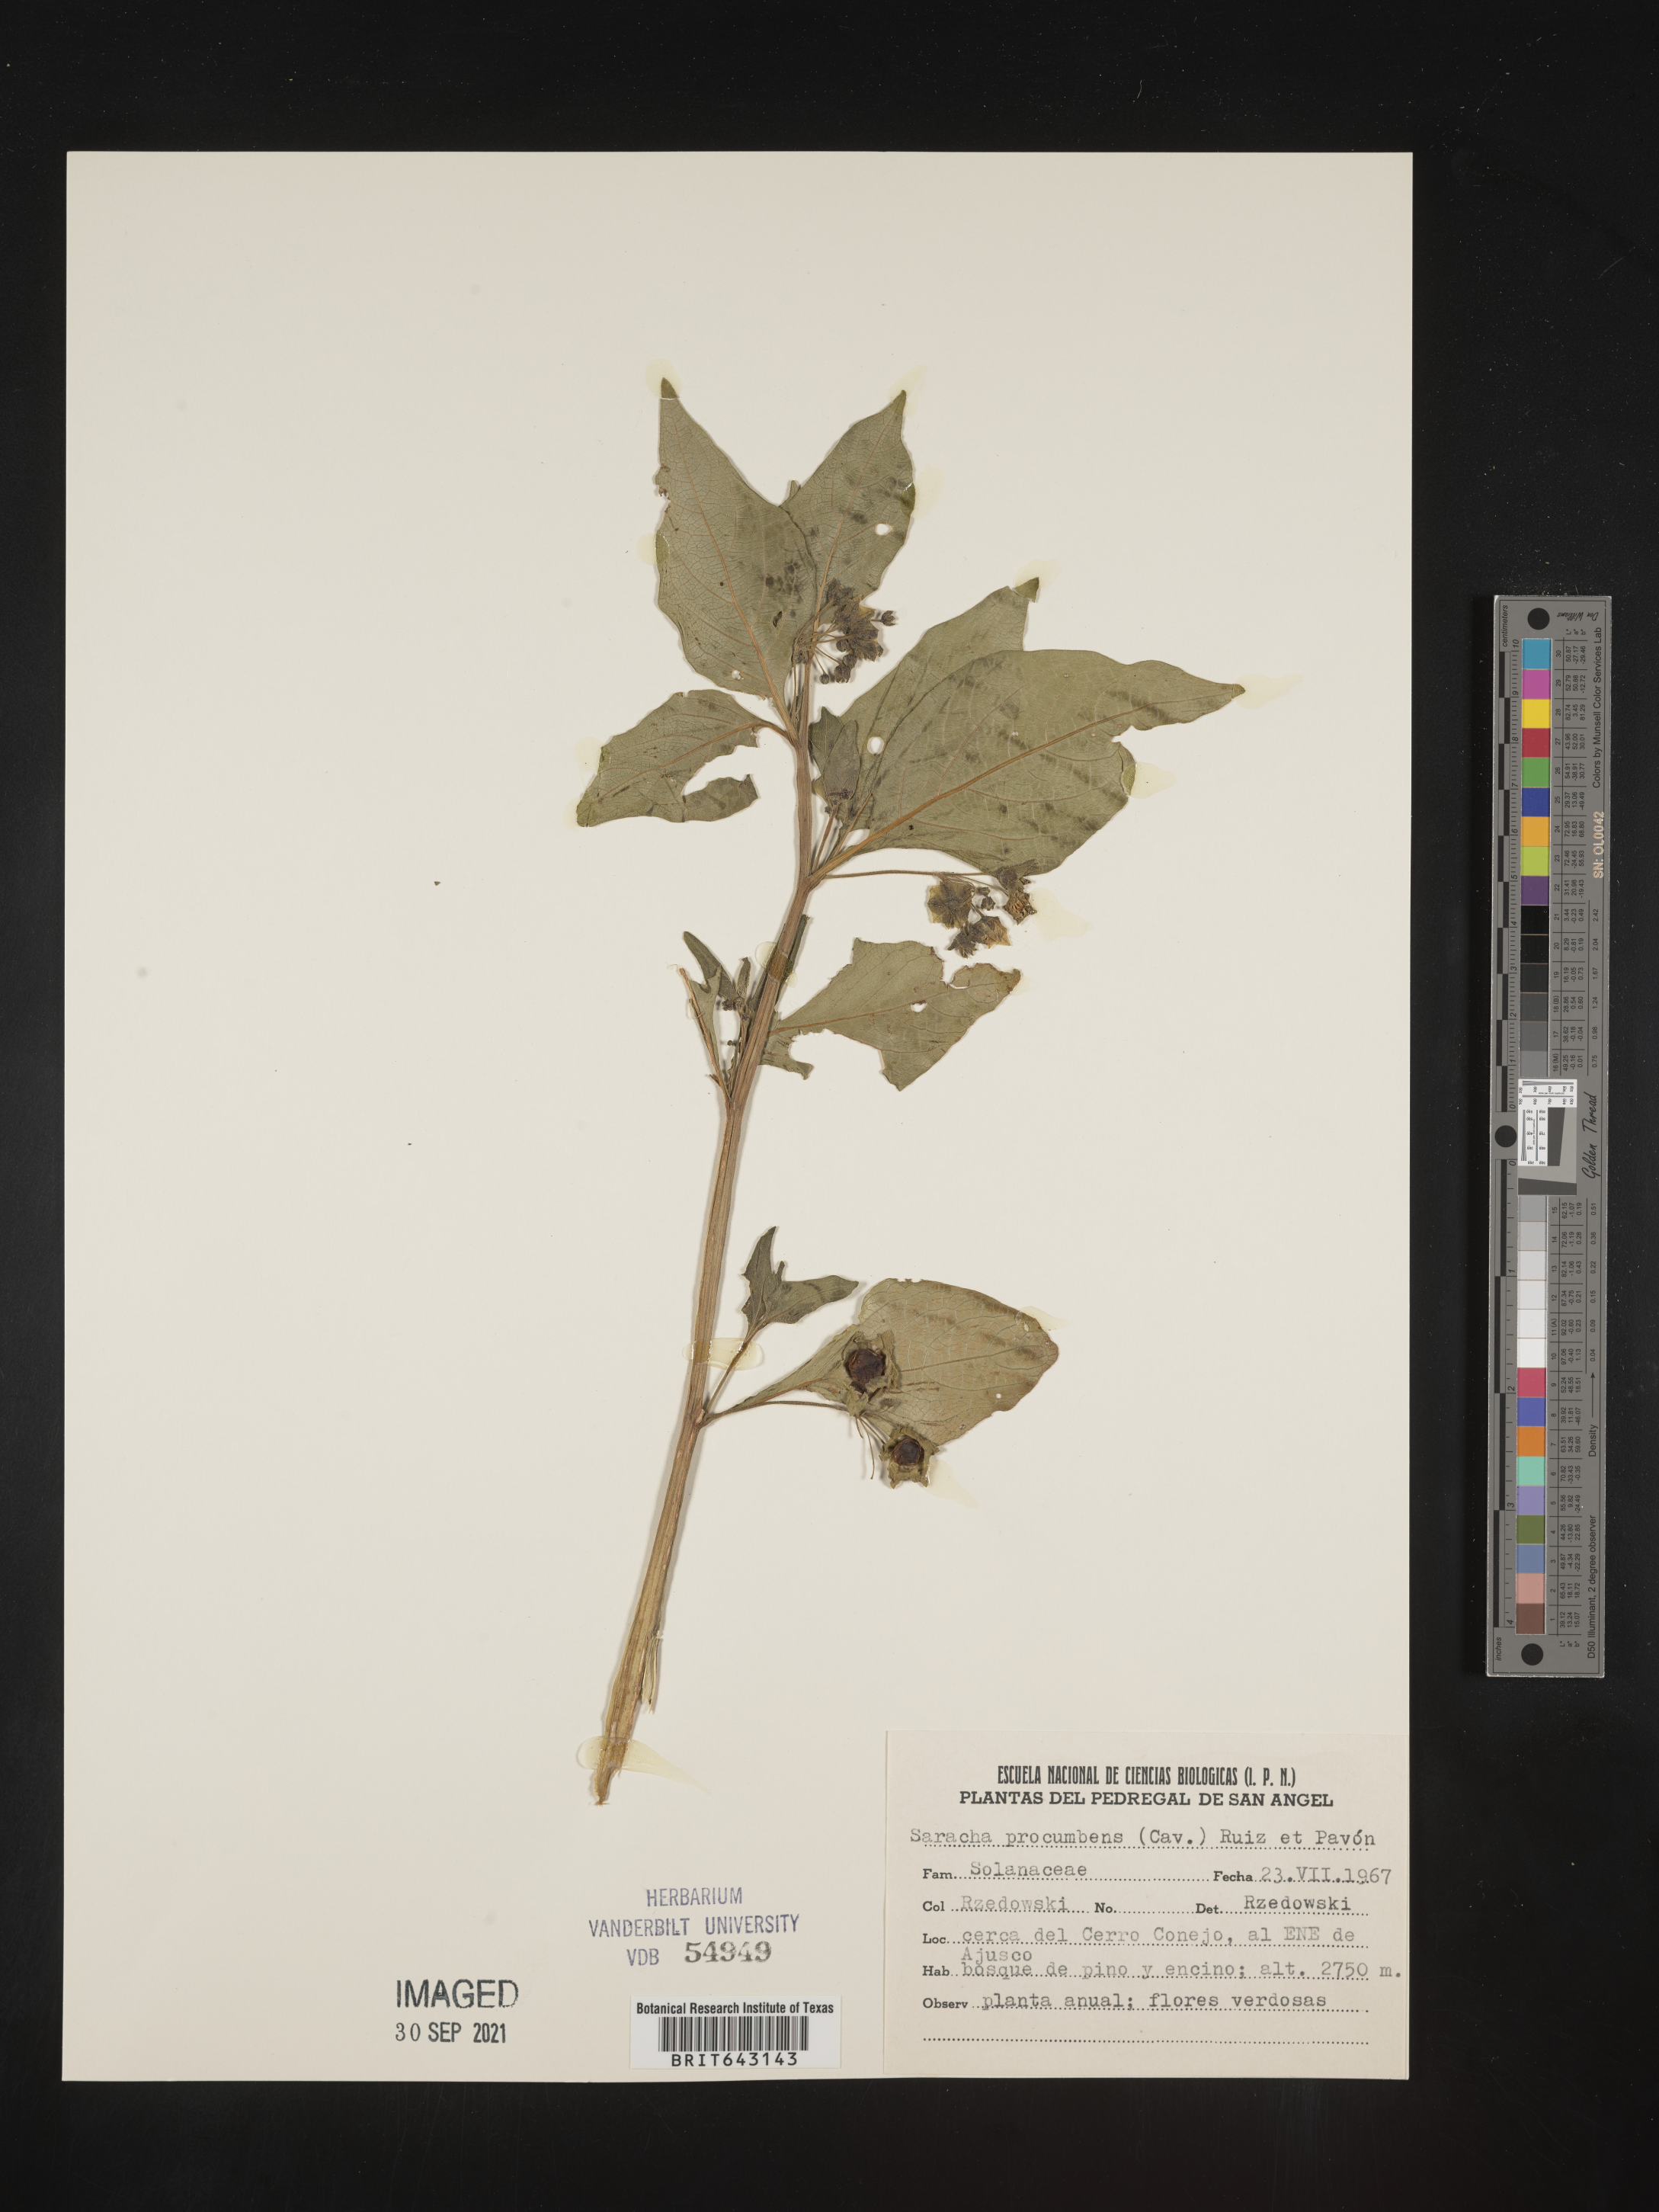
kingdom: Plantae
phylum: Tracheophyta
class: Magnoliopsida
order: Solanales
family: Solanaceae
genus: Saracha
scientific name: Saracha
